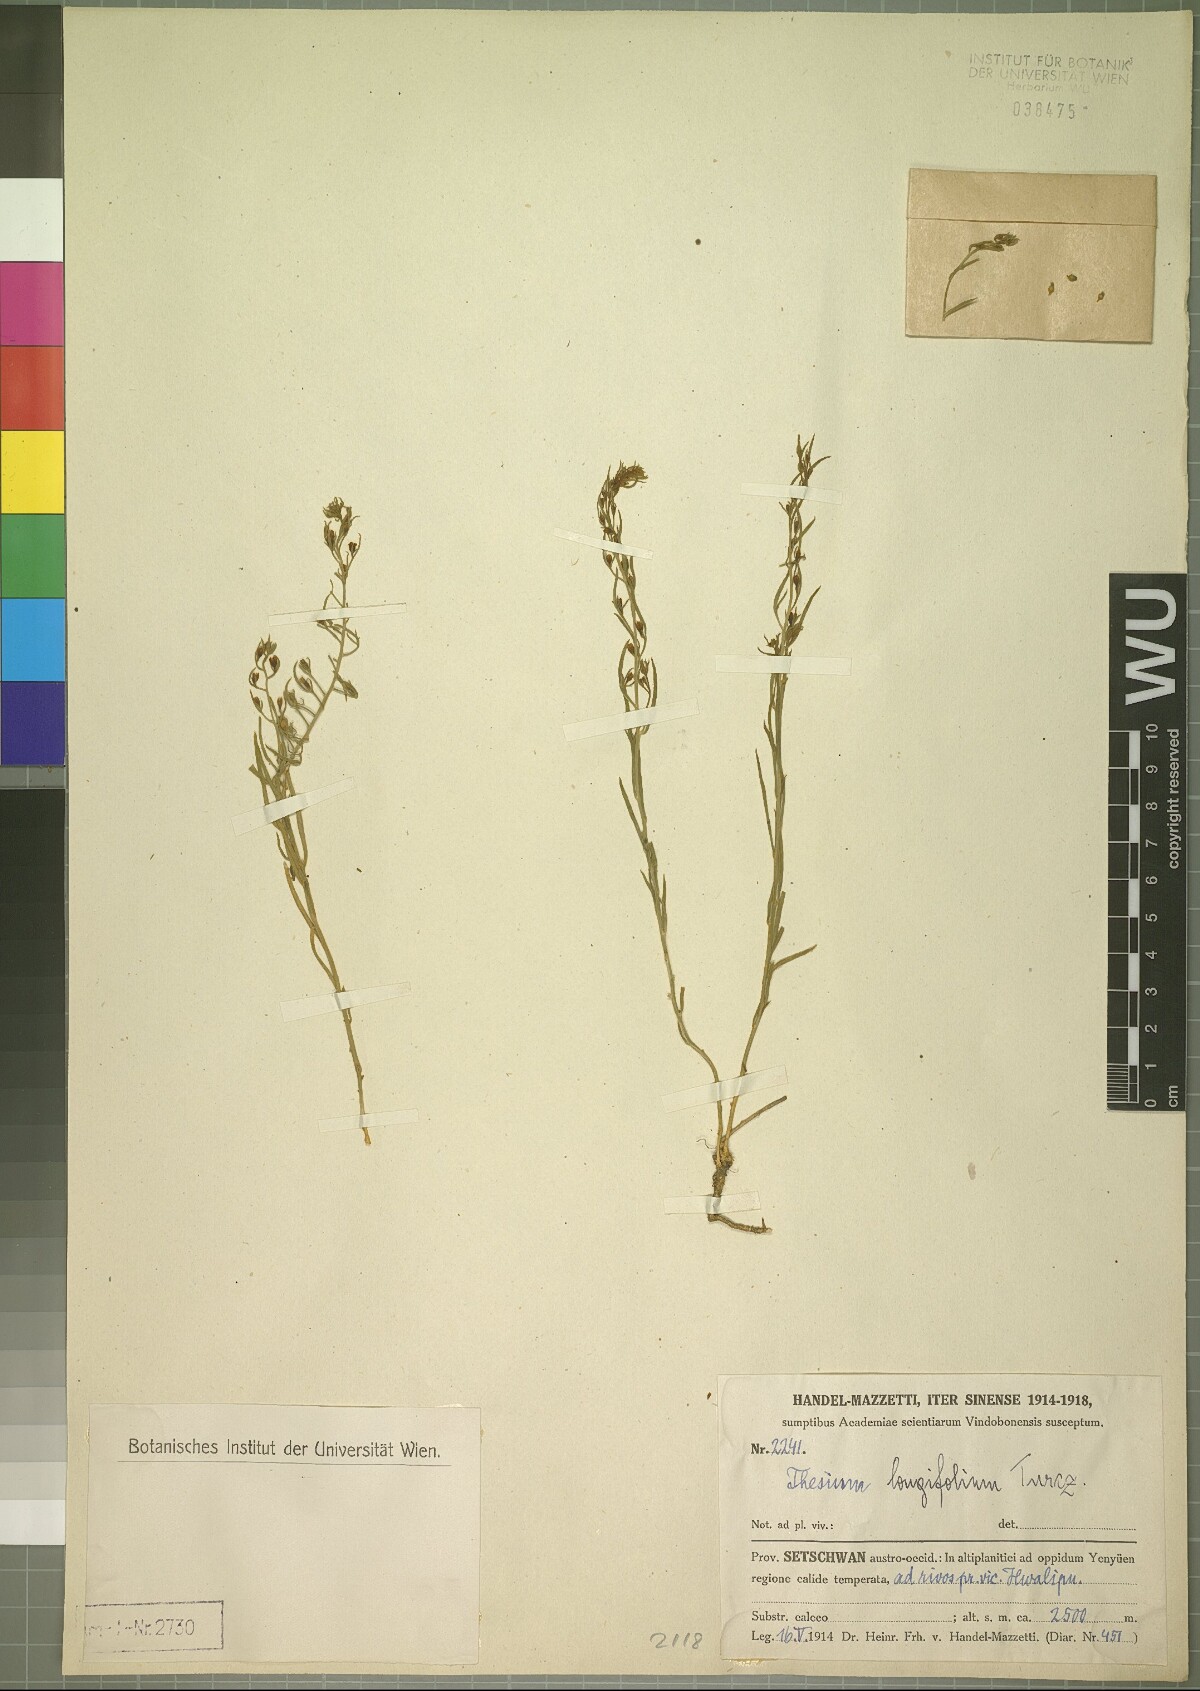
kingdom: Plantae
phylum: Tracheophyta
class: Magnoliopsida
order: Santalales
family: Thesiaceae
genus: Thesium
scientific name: Thesium longifolium
